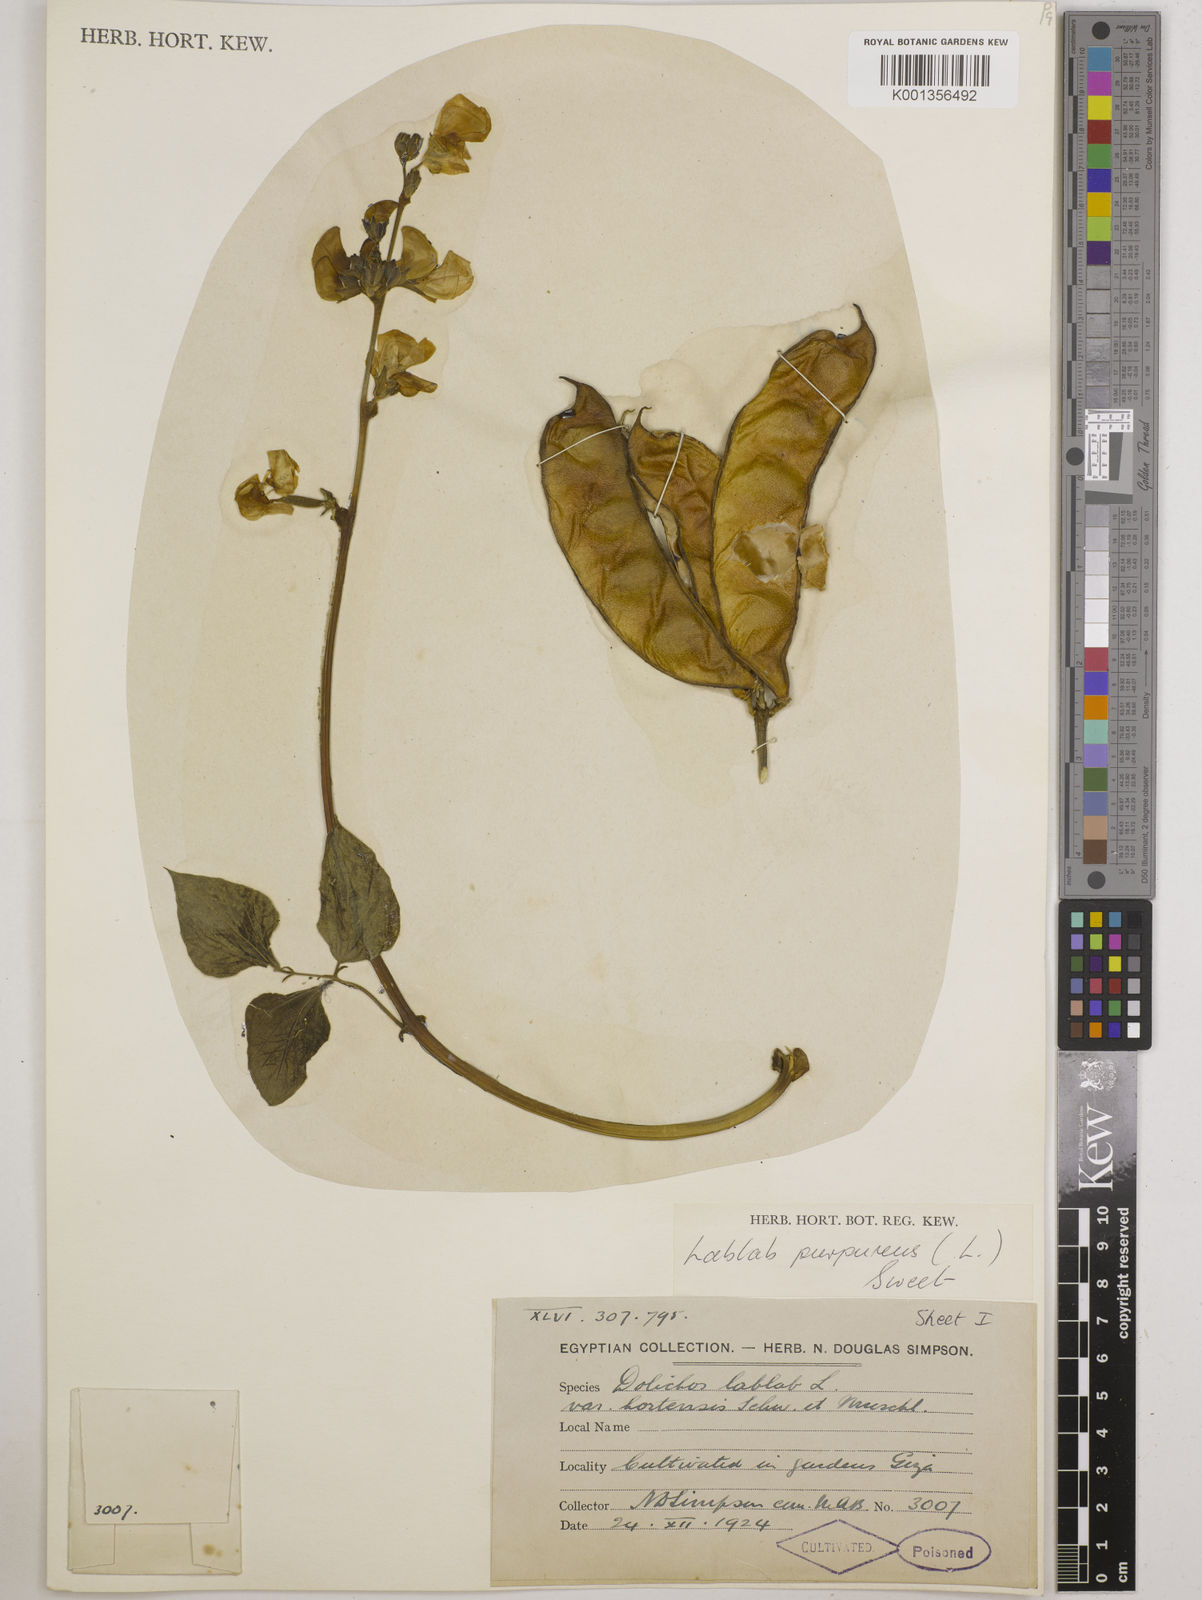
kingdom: Plantae
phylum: Tracheophyta
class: Magnoliopsida
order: Fabales
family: Fabaceae
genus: Lablab
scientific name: Lablab purpureus
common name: Lablab-bean
